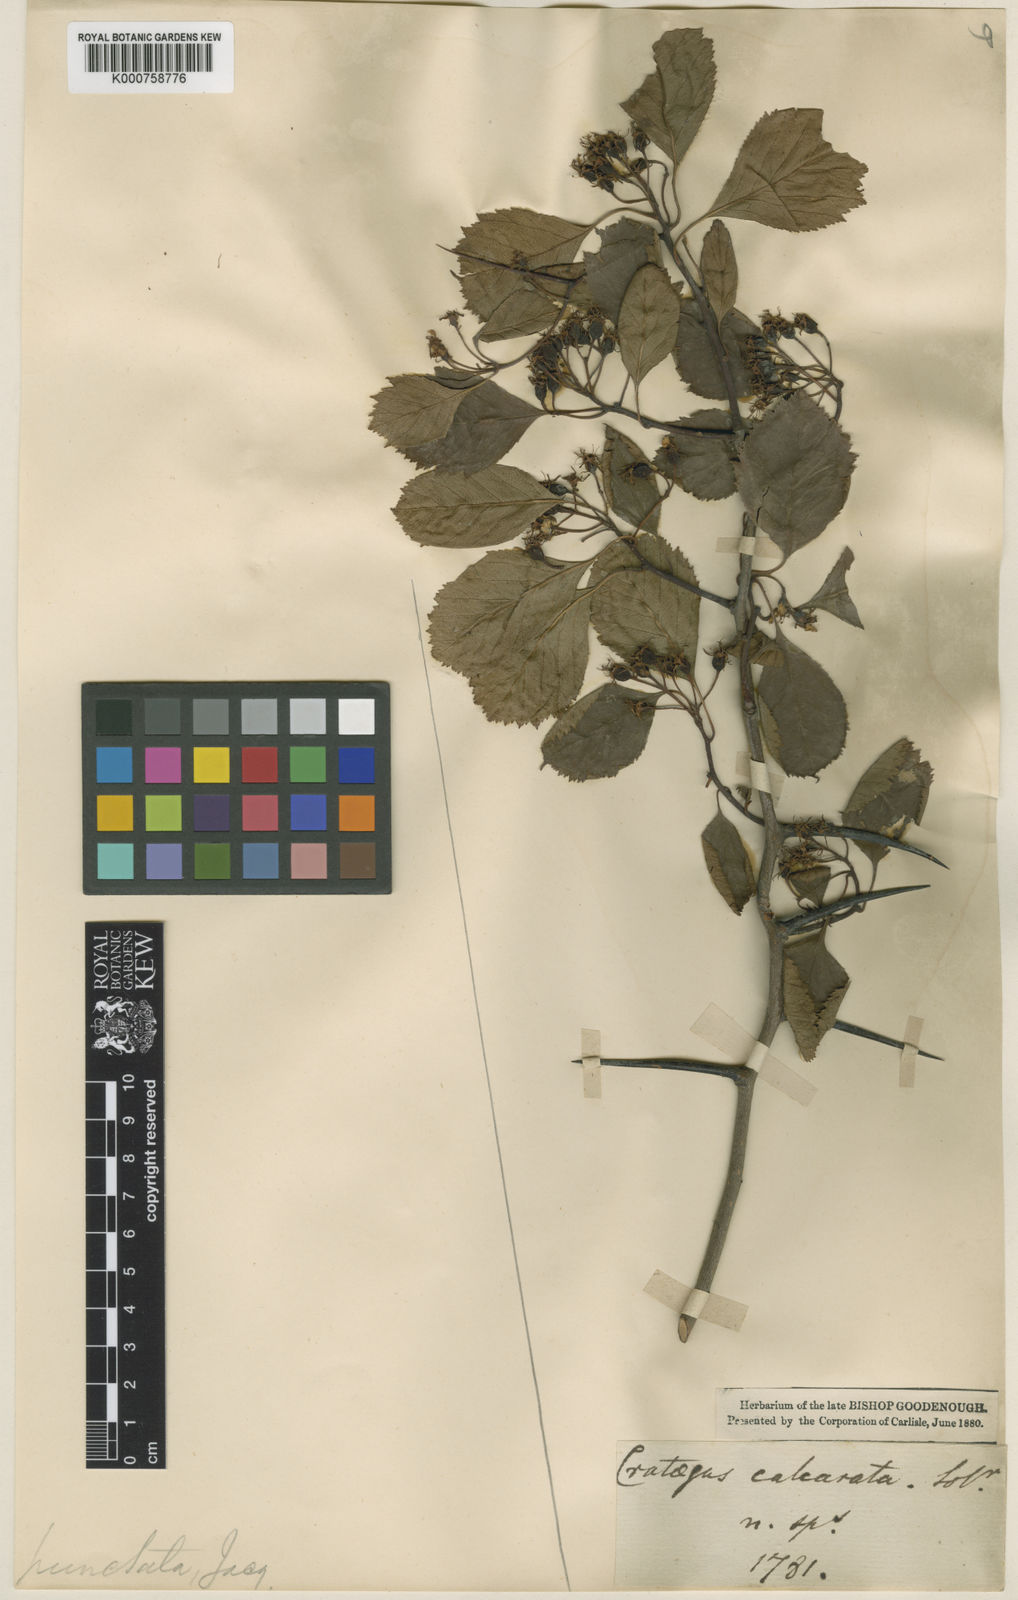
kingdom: Plantae
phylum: Tracheophyta
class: Magnoliopsida
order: Rosales
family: Rosaceae
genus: Crataegus
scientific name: Crataegus punctata
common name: Dotted hawthorn
